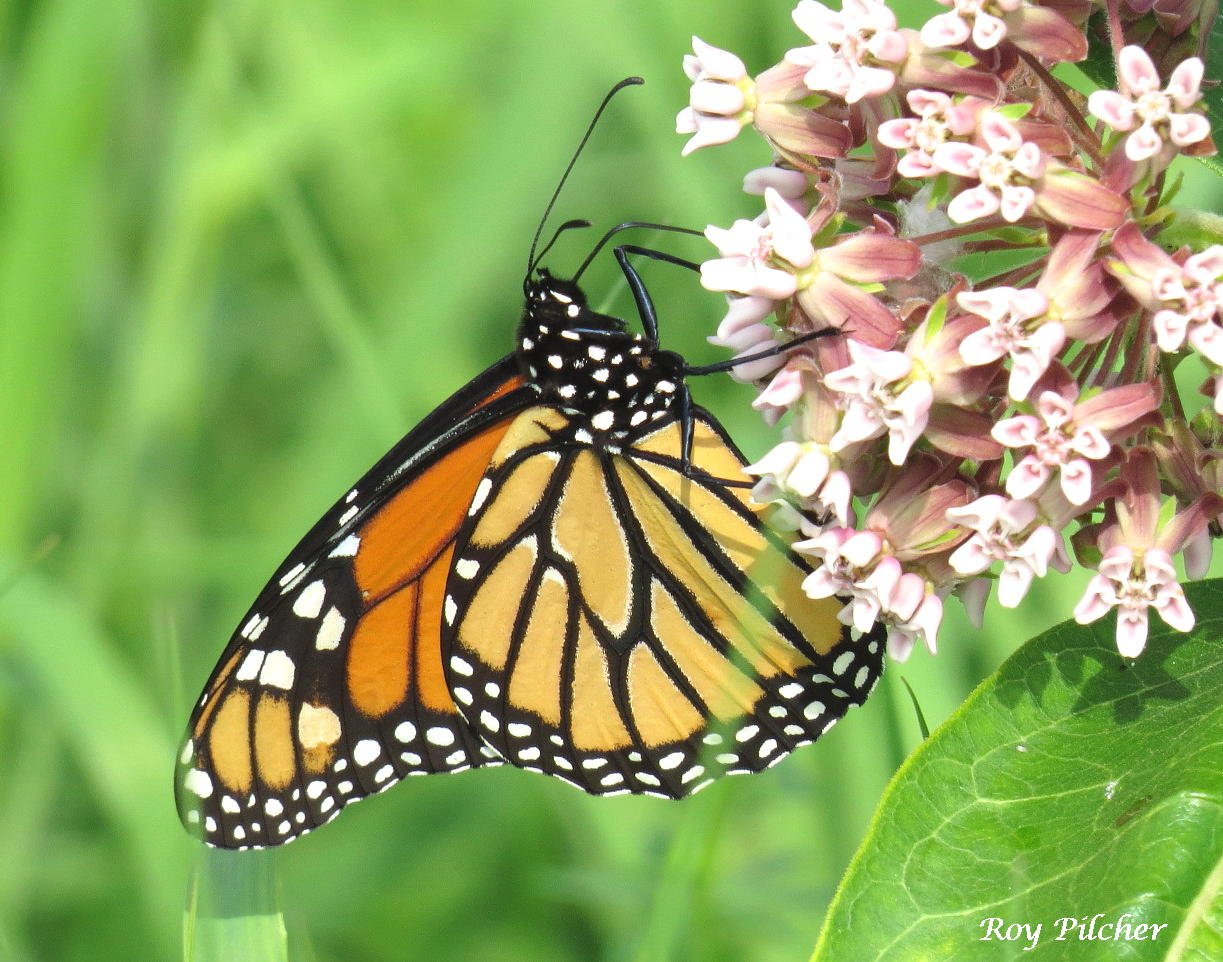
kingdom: Animalia
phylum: Arthropoda
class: Insecta
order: Lepidoptera
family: Nymphalidae
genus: Danaus
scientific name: Danaus plexippus
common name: Monarch
